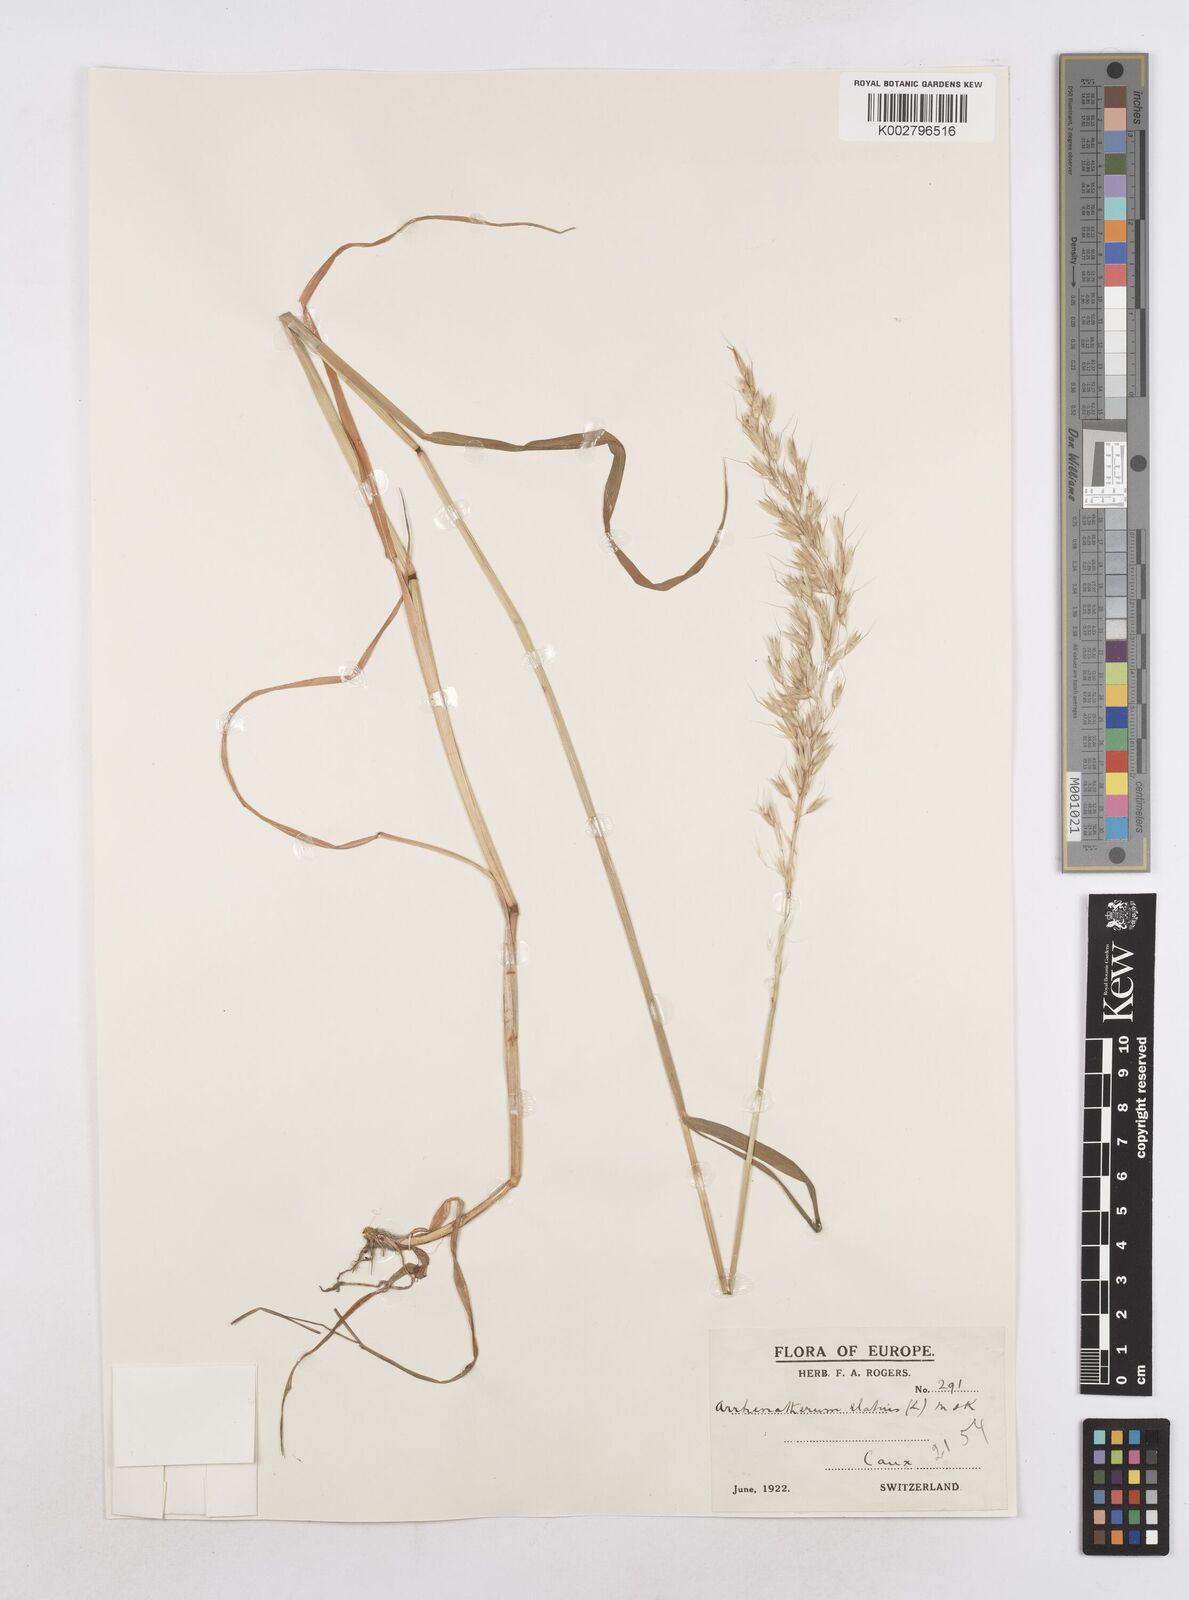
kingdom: Plantae
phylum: Tracheophyta
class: Liliopsida
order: Poales
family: Poaceae
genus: Arrhenatherum
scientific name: Arrhenatherum elatius
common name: Tall oatgrass
